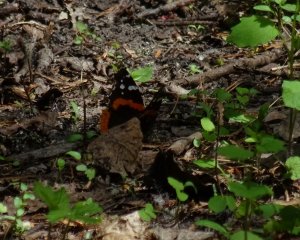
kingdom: Animalia
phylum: Arthropoda
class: Insecta
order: Lepidoptera
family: Nymphalidae
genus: Vanessa
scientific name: Vanessa atalanta
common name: Red Admiral
